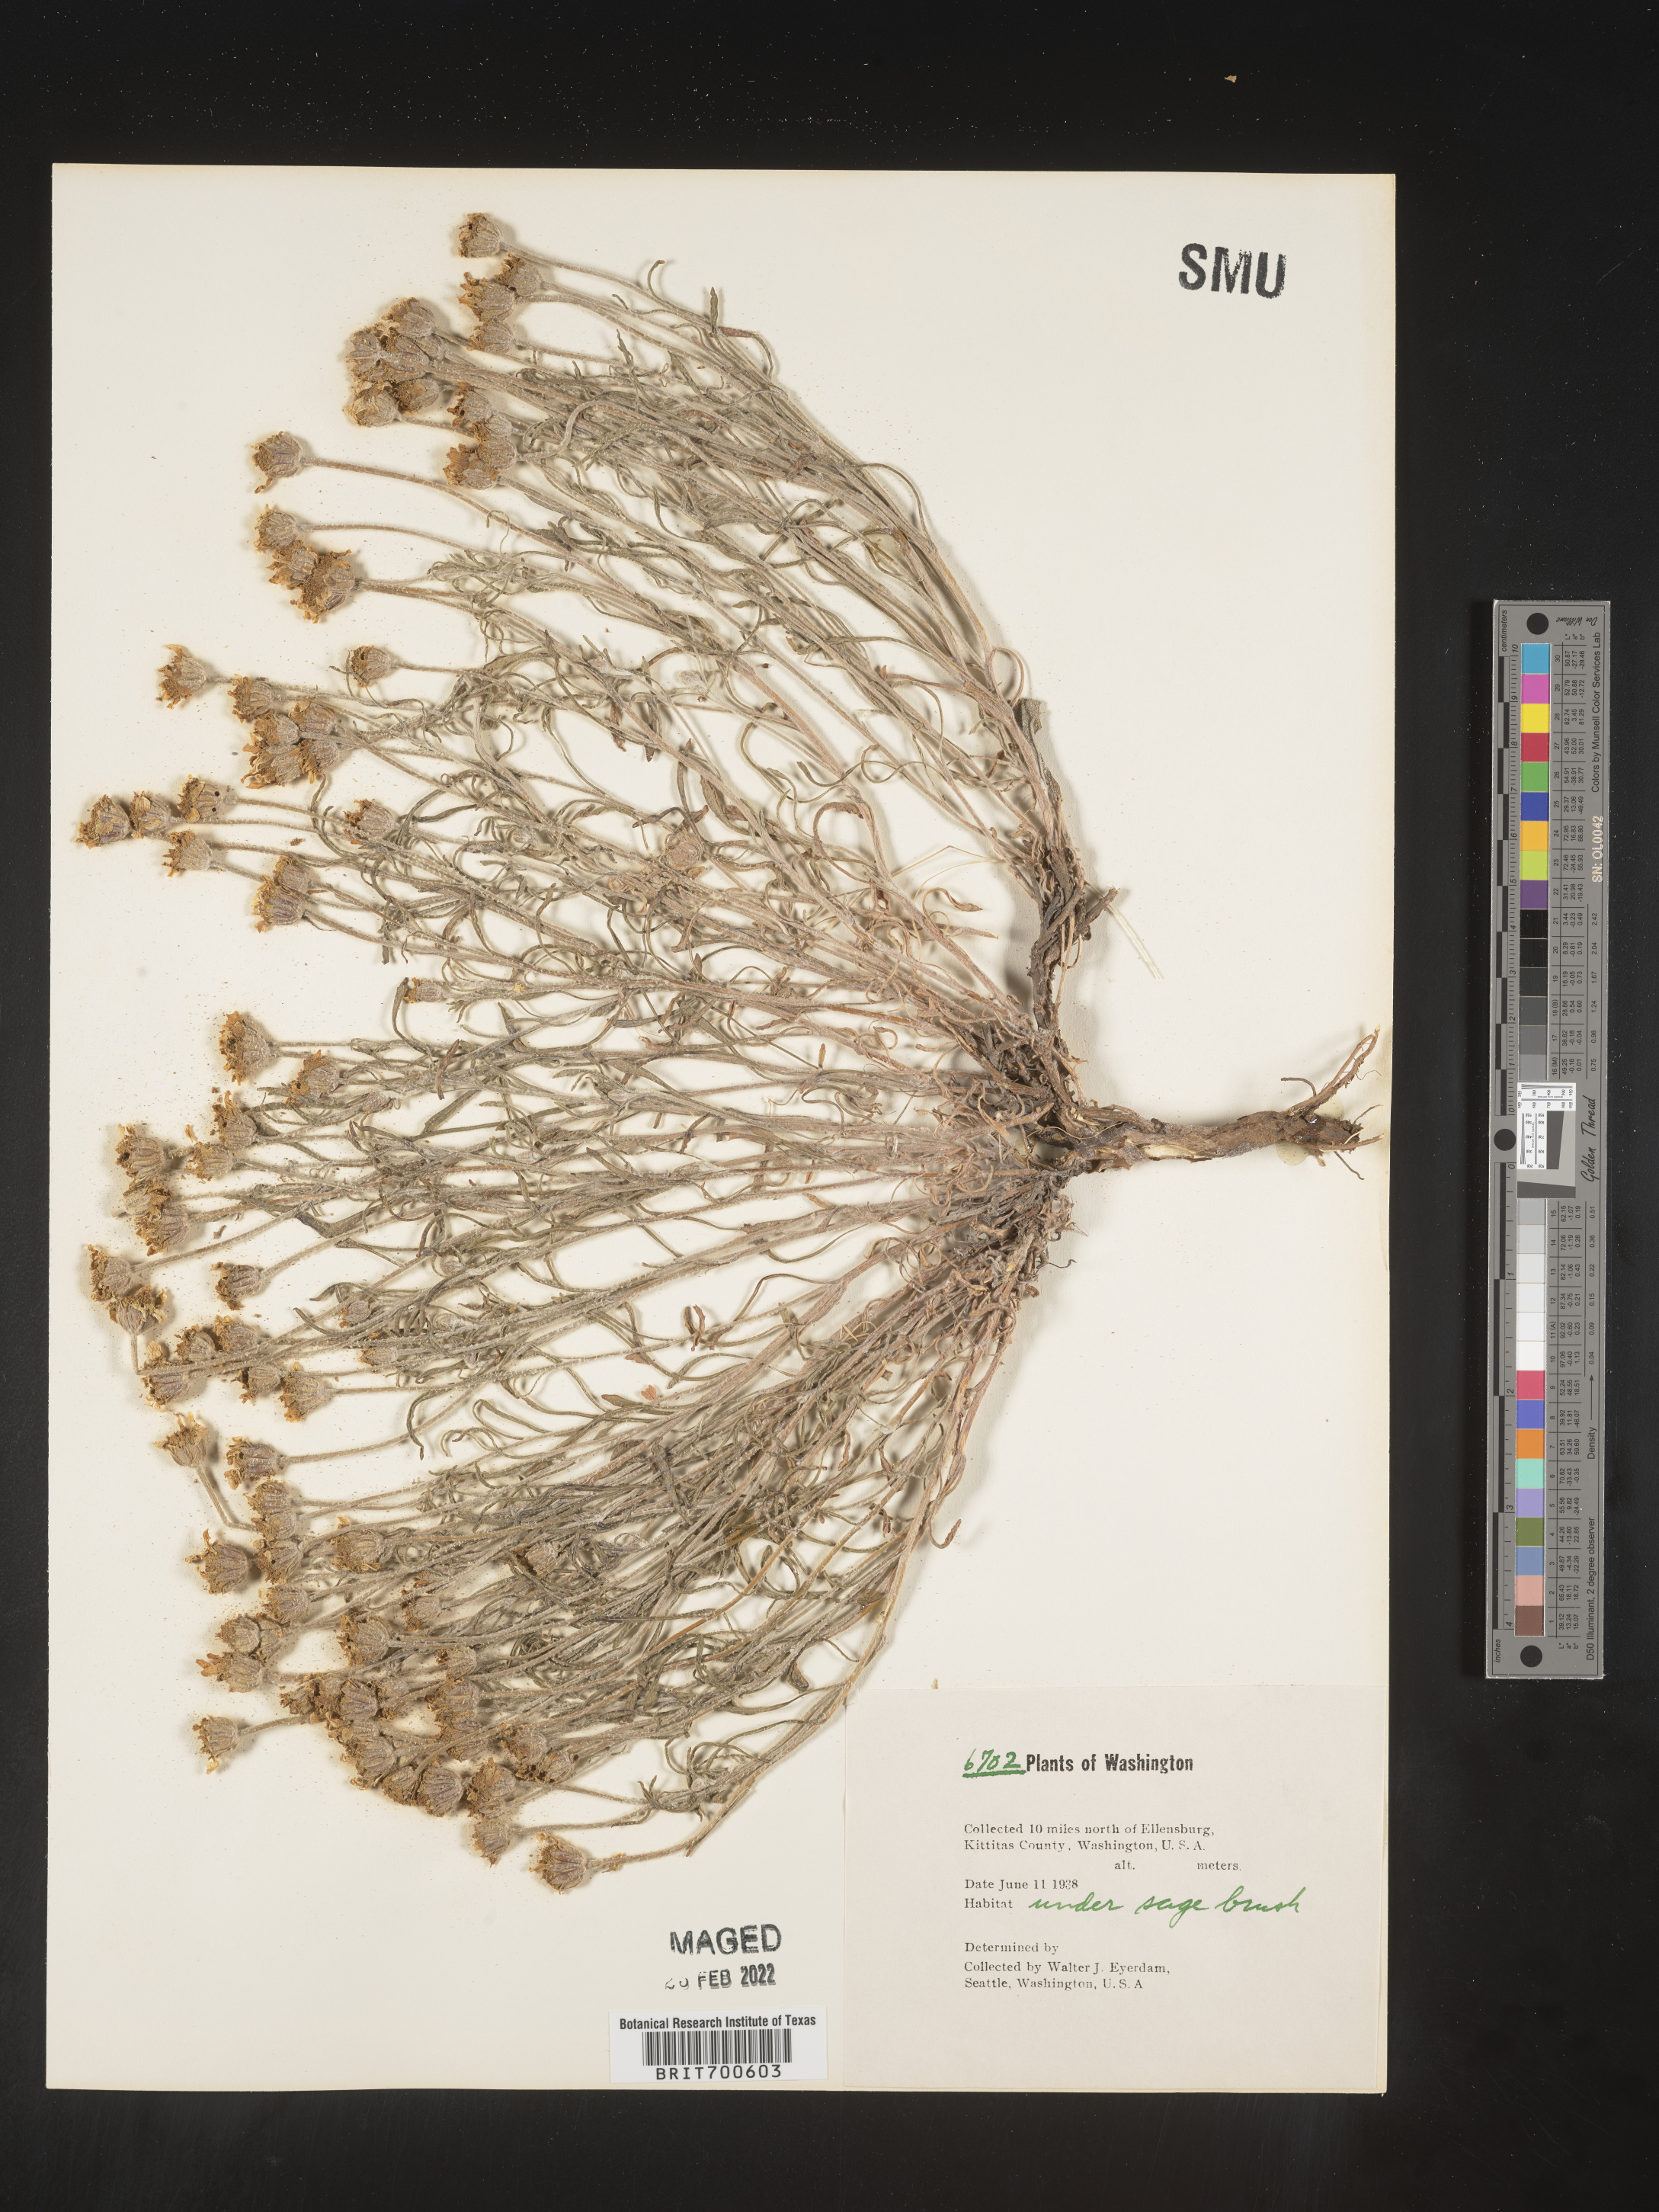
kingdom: Plantae
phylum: Tracheophyta
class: Magnoliopsida
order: Asterales
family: Asteraceae
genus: Eriophyllum
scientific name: Eriophyllum
